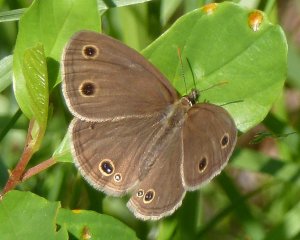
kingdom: Animalia
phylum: Arthropoda
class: Insecta
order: Lepidoptera
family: Nymphalidae
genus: Euptychia
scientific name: Euptychia cymela
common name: Little Wood Satyr
